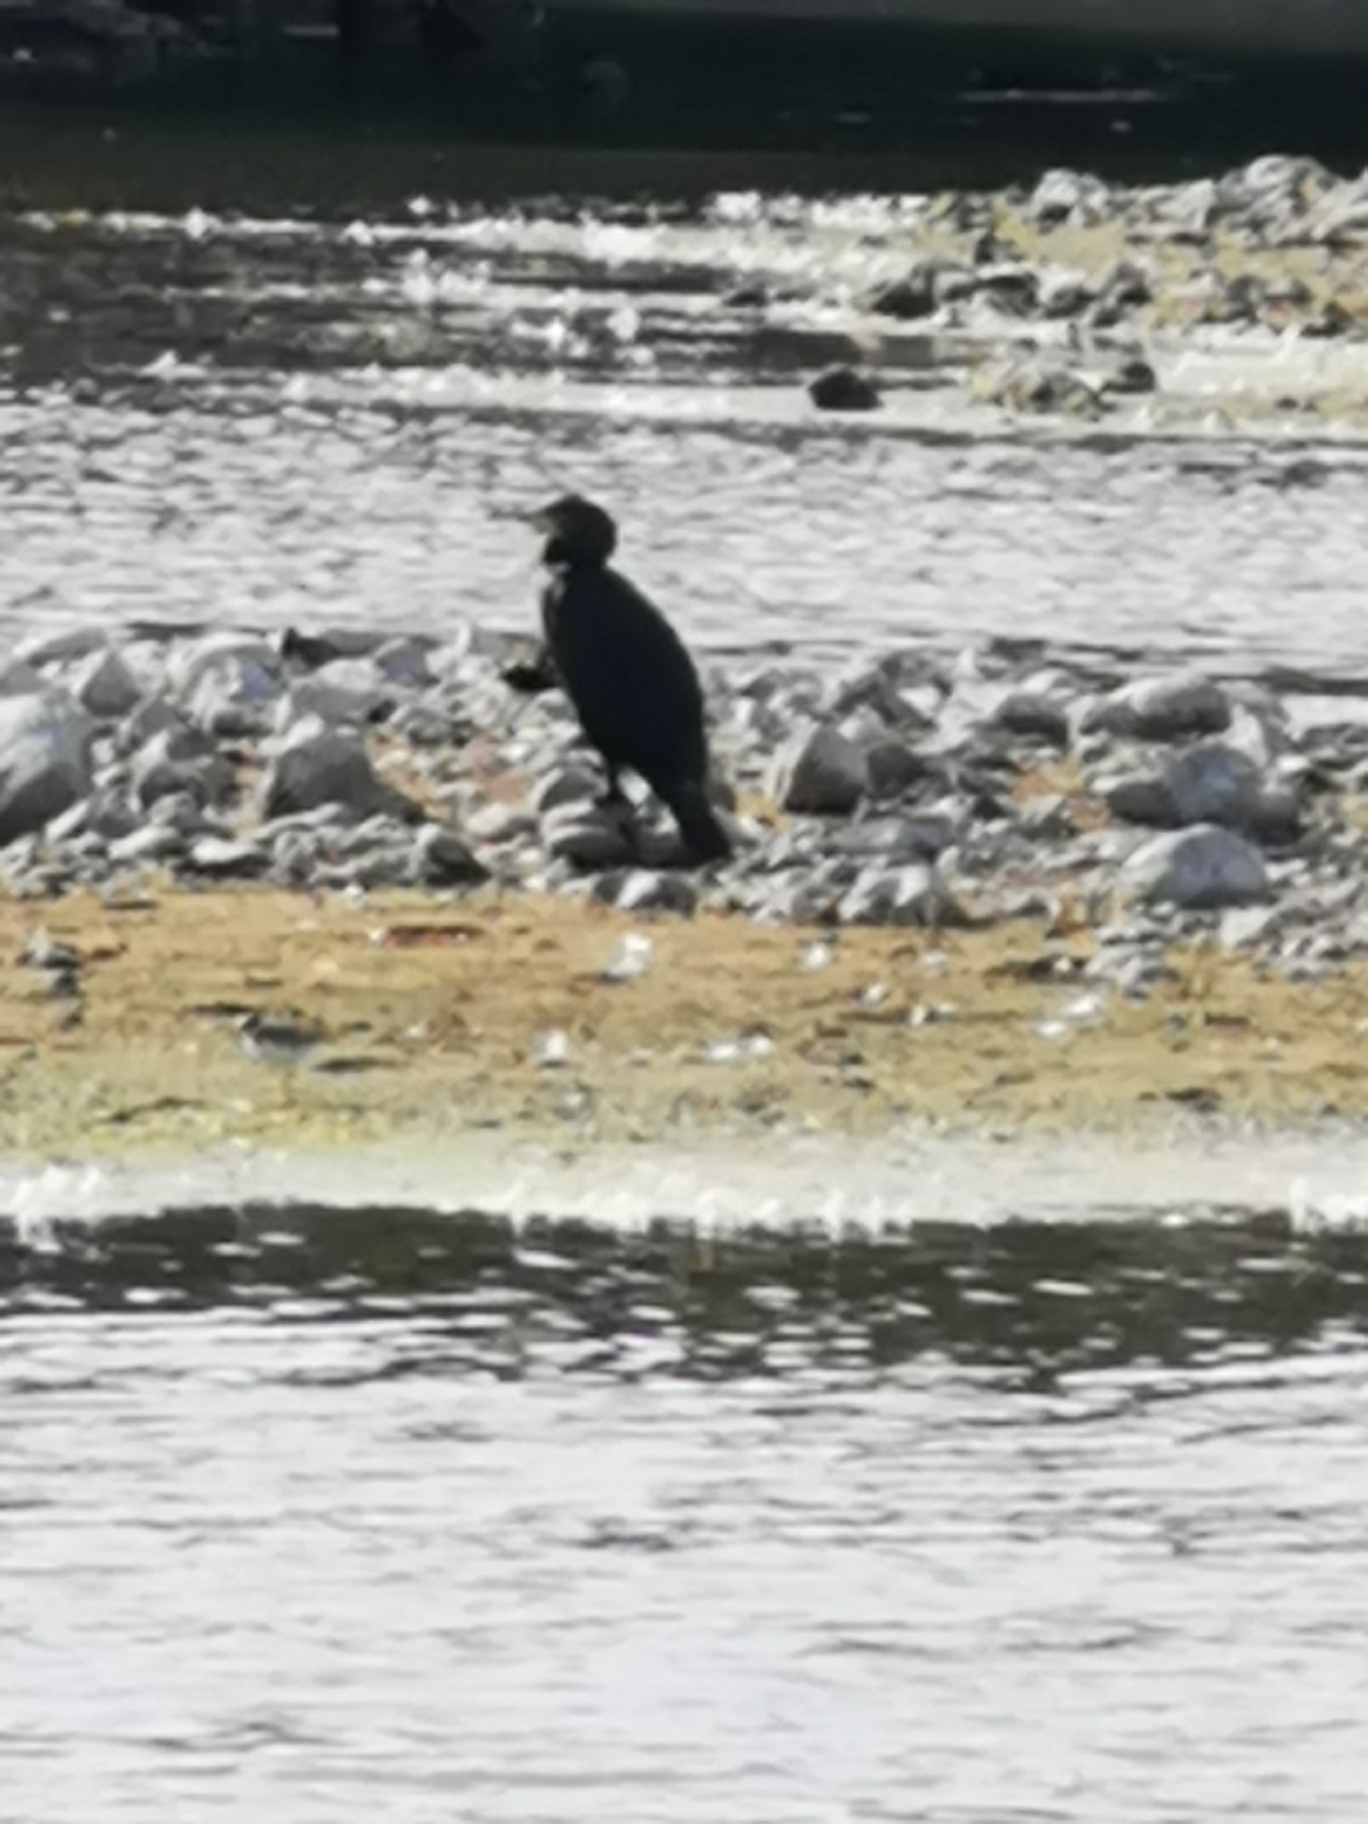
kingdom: Animalia
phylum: Chordata
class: Aves
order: Suliformes
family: Phalacrocoracidae
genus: Phalacrocorax
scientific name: Phalacrocorax carbo
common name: Skarv
